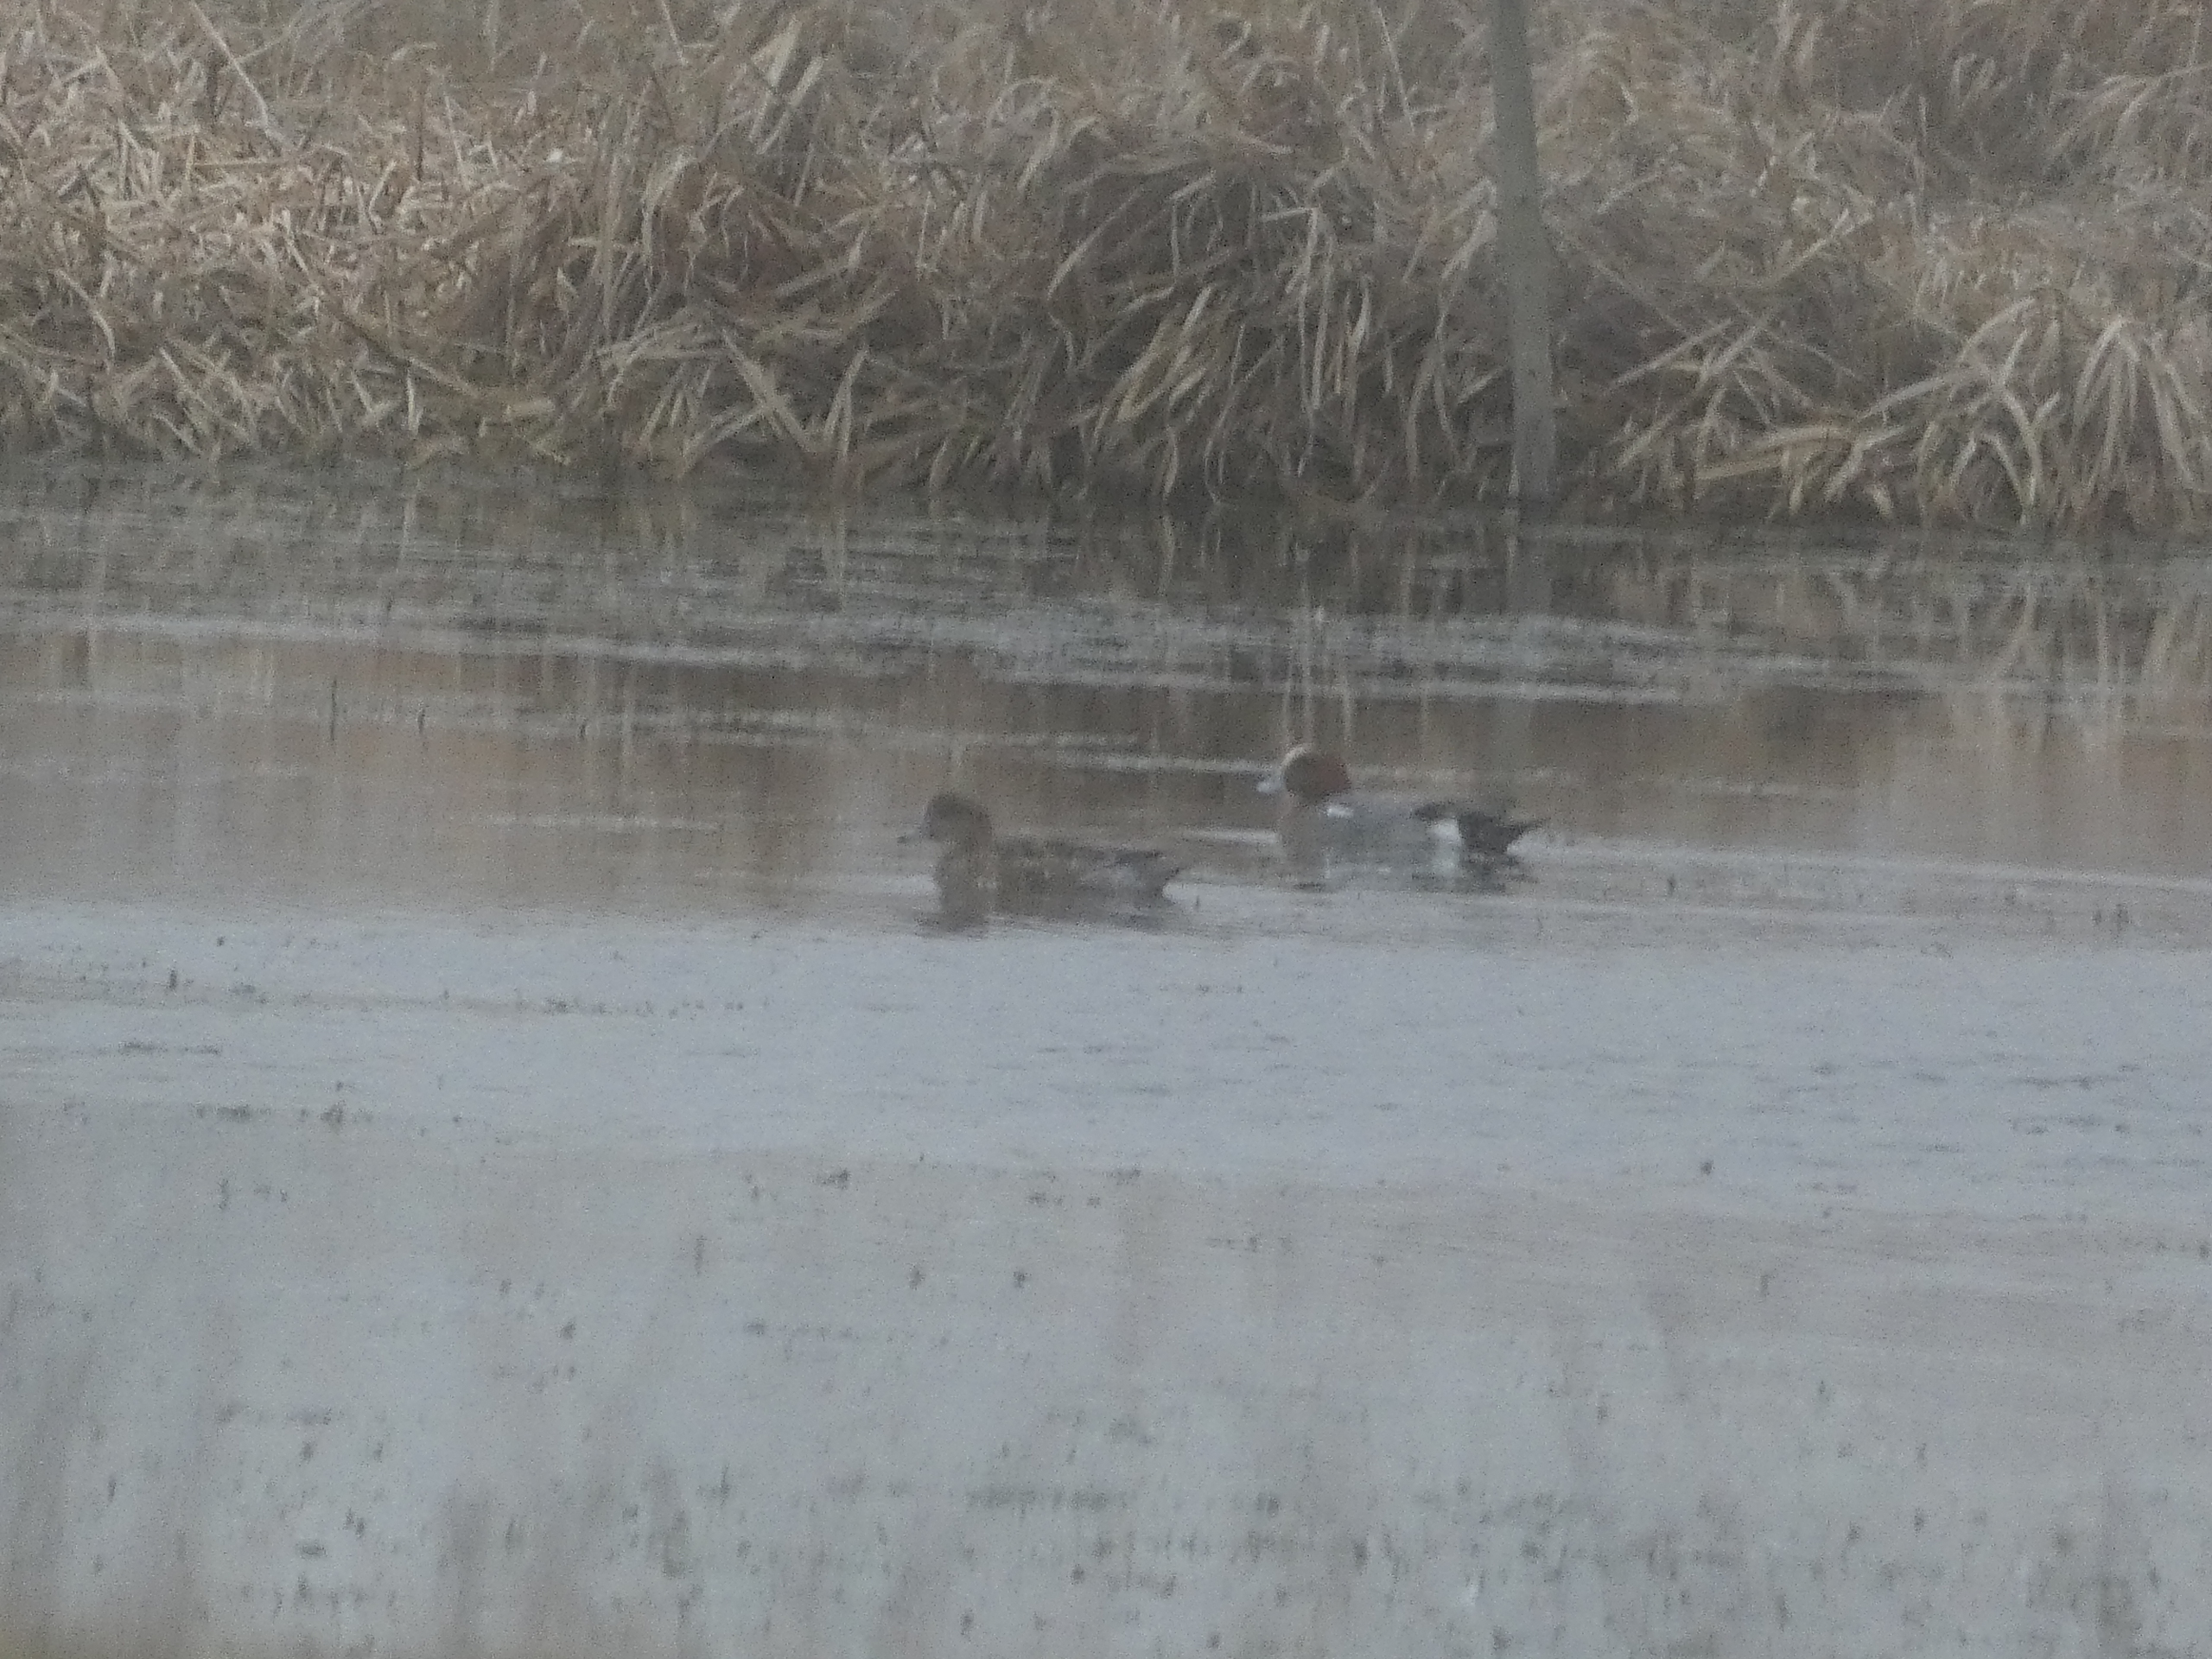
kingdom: Animalia
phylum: Chordata
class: Aves
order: Anseriformes
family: Anatidae
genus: Mareca
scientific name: Mareca penelope
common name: Pibeand
